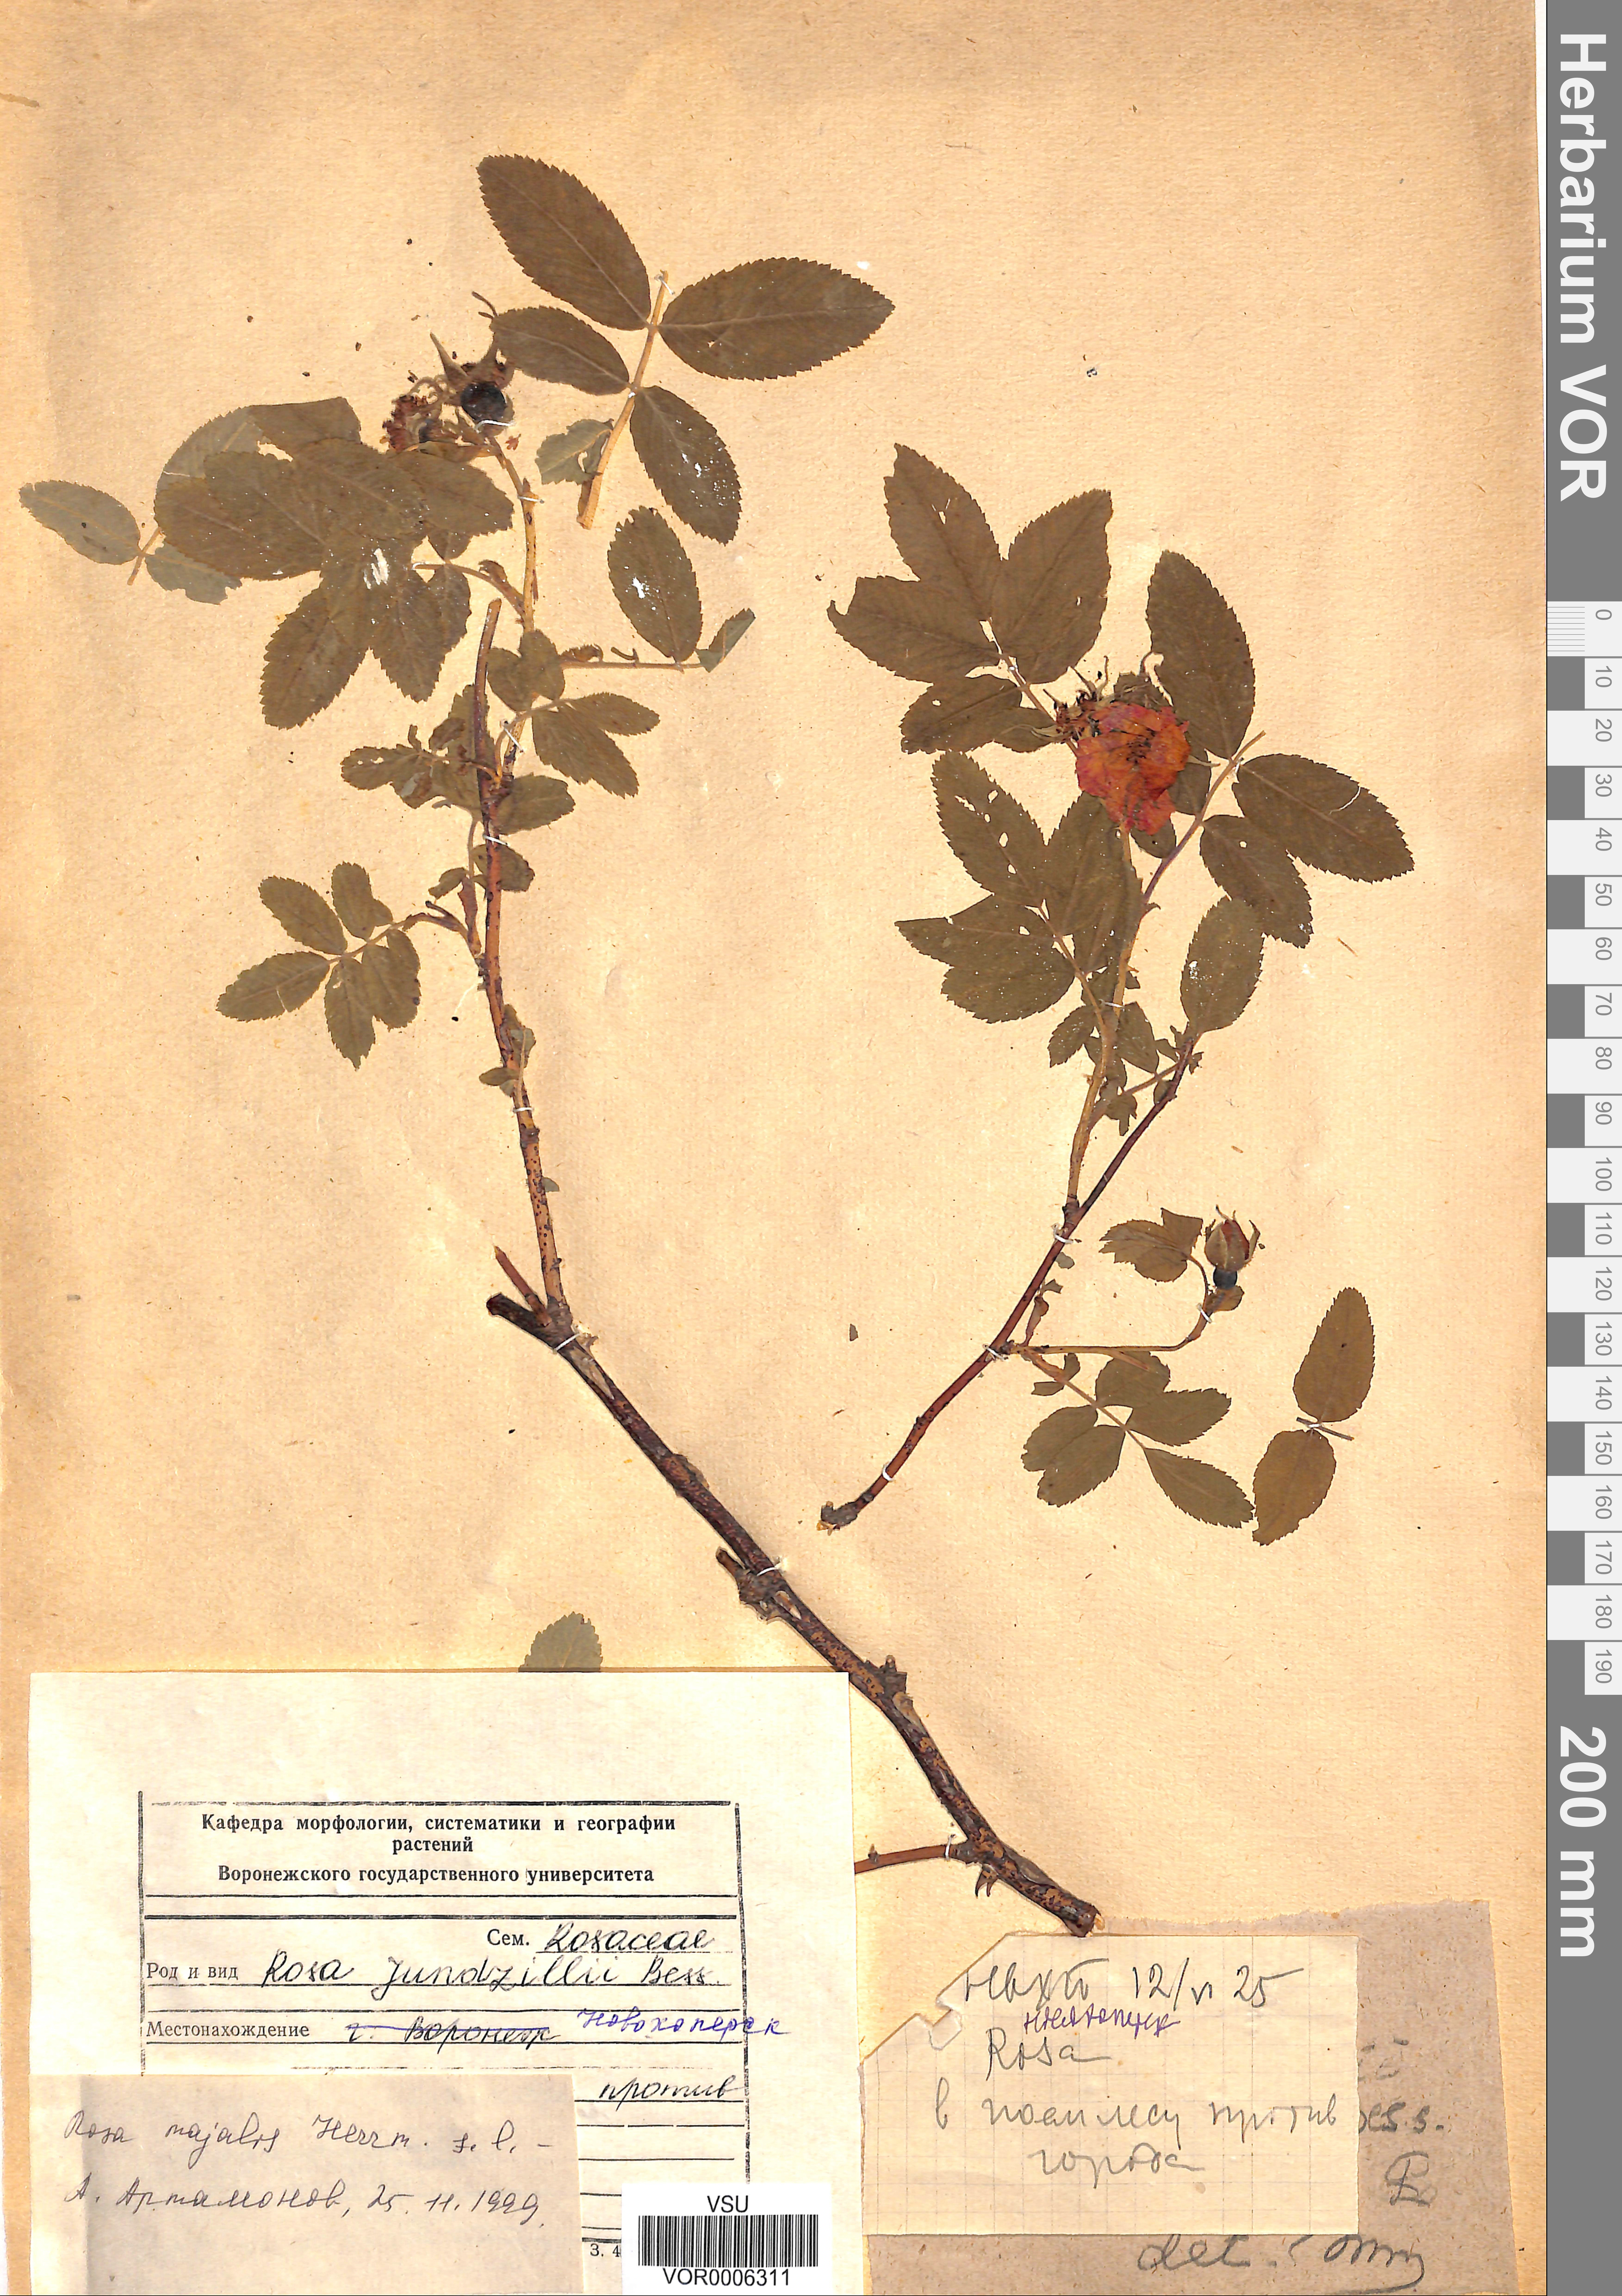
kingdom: Plantae
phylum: Tracheophyta
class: Magnoliopsida
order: Rosales
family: Rosaceae
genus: Rosa
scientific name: Rosa majalis
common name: Cinnamon rose
